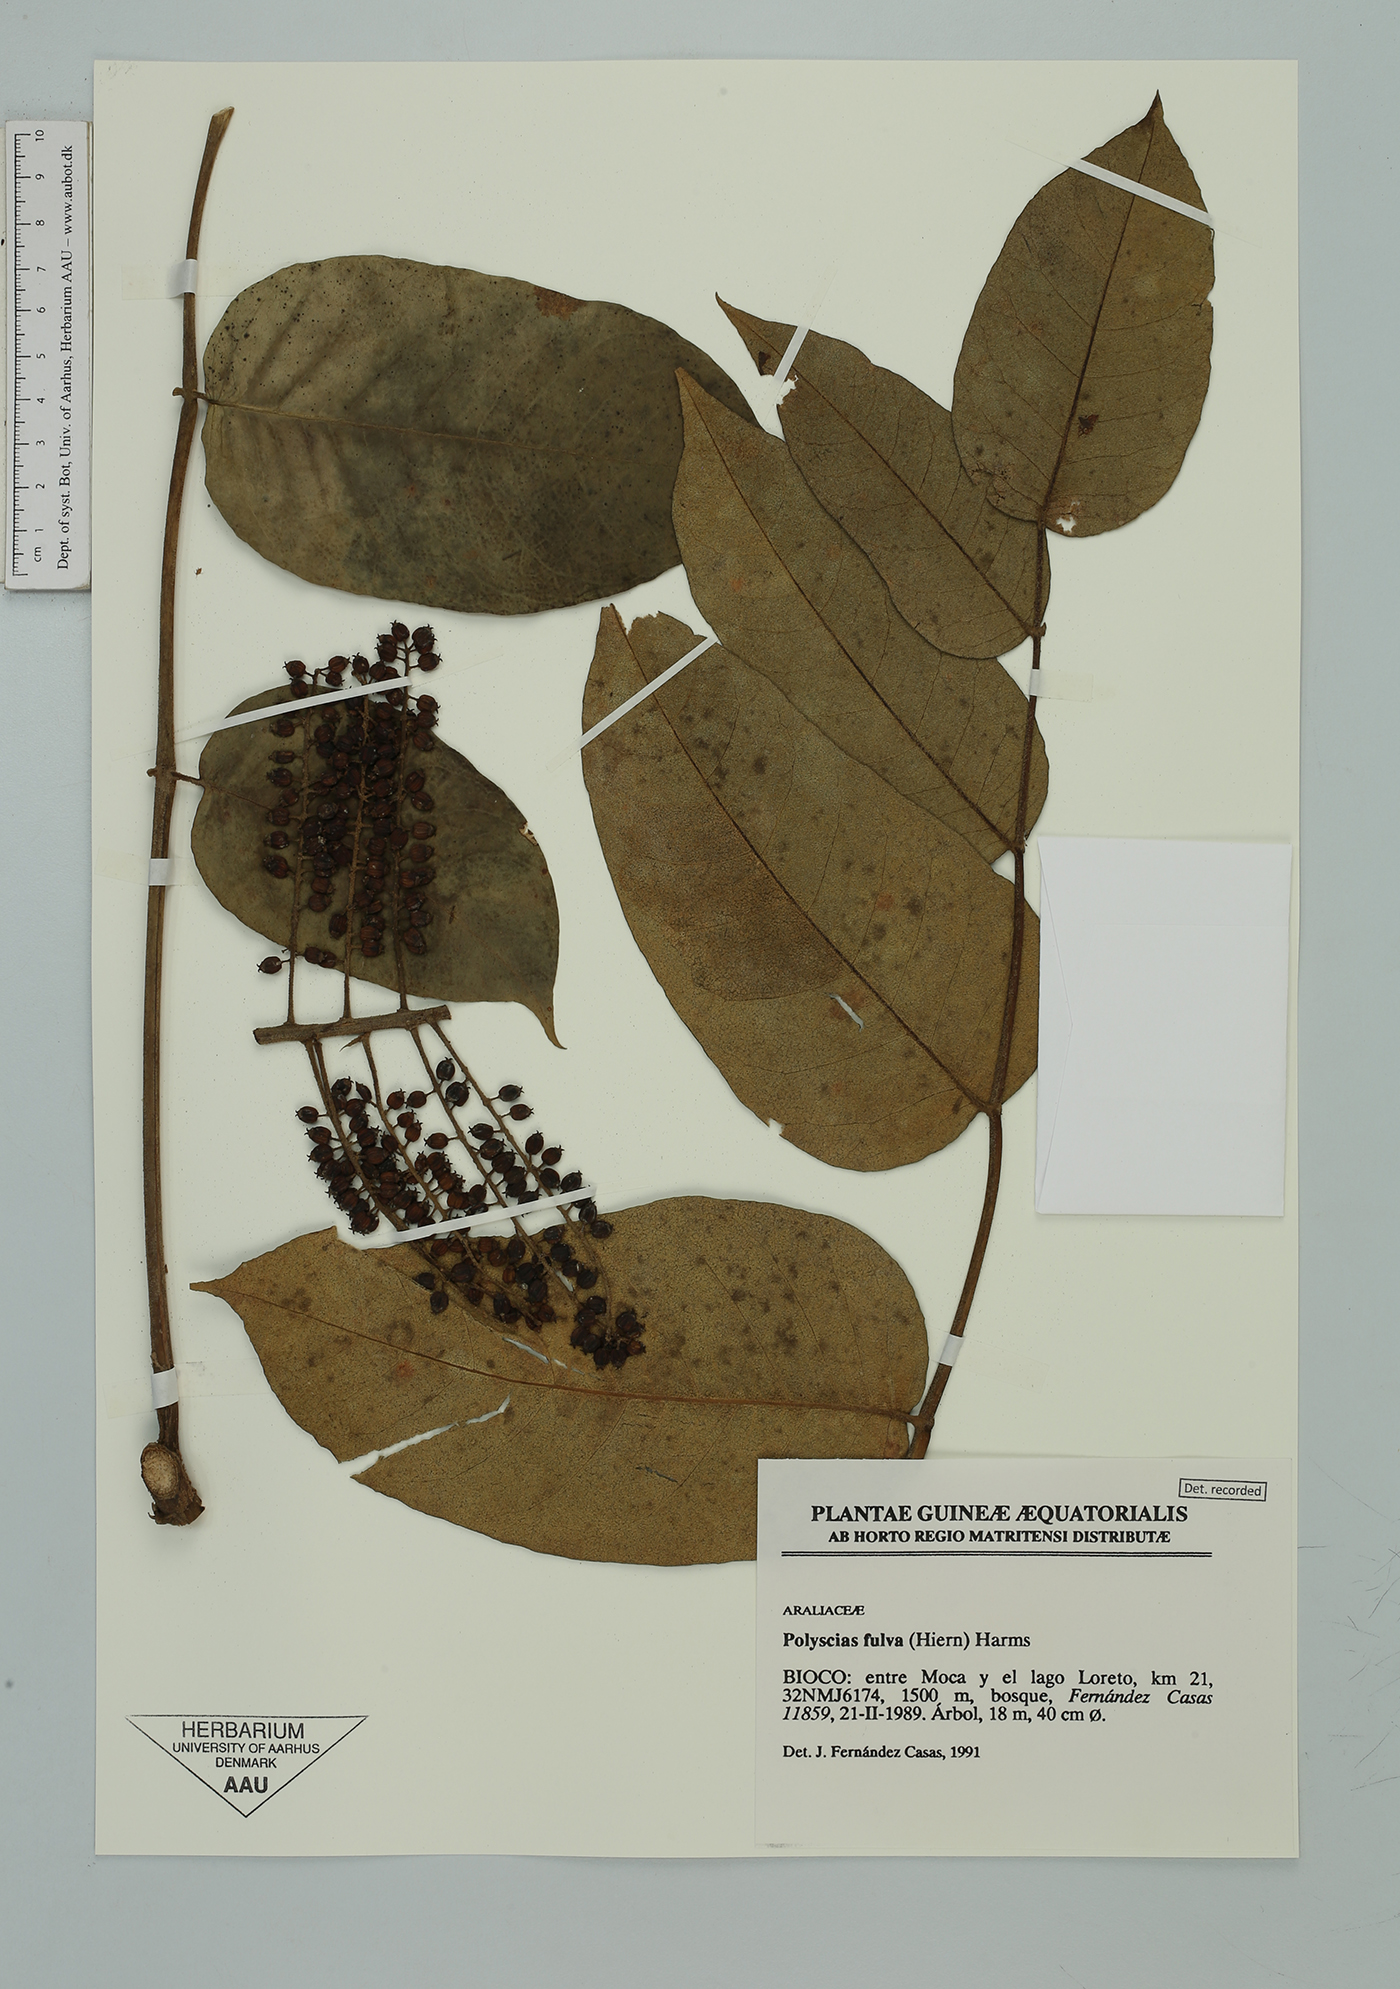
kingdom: Plantae
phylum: Tracheophyta
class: Magnoliopsida
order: Apiales
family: Araliaceae
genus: Polyscias
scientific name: Polyscias fulva
